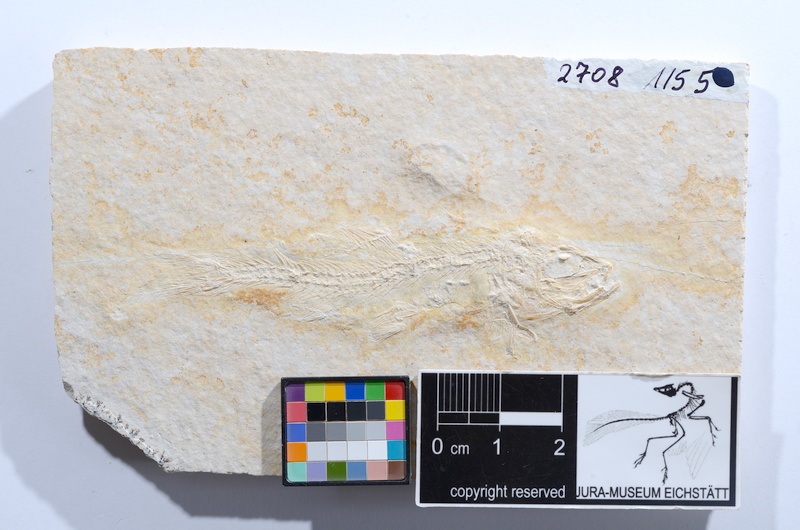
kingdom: Animalia
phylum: Chordata
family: Ascalaboidae
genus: Tharsis
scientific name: Tharsis dubius
